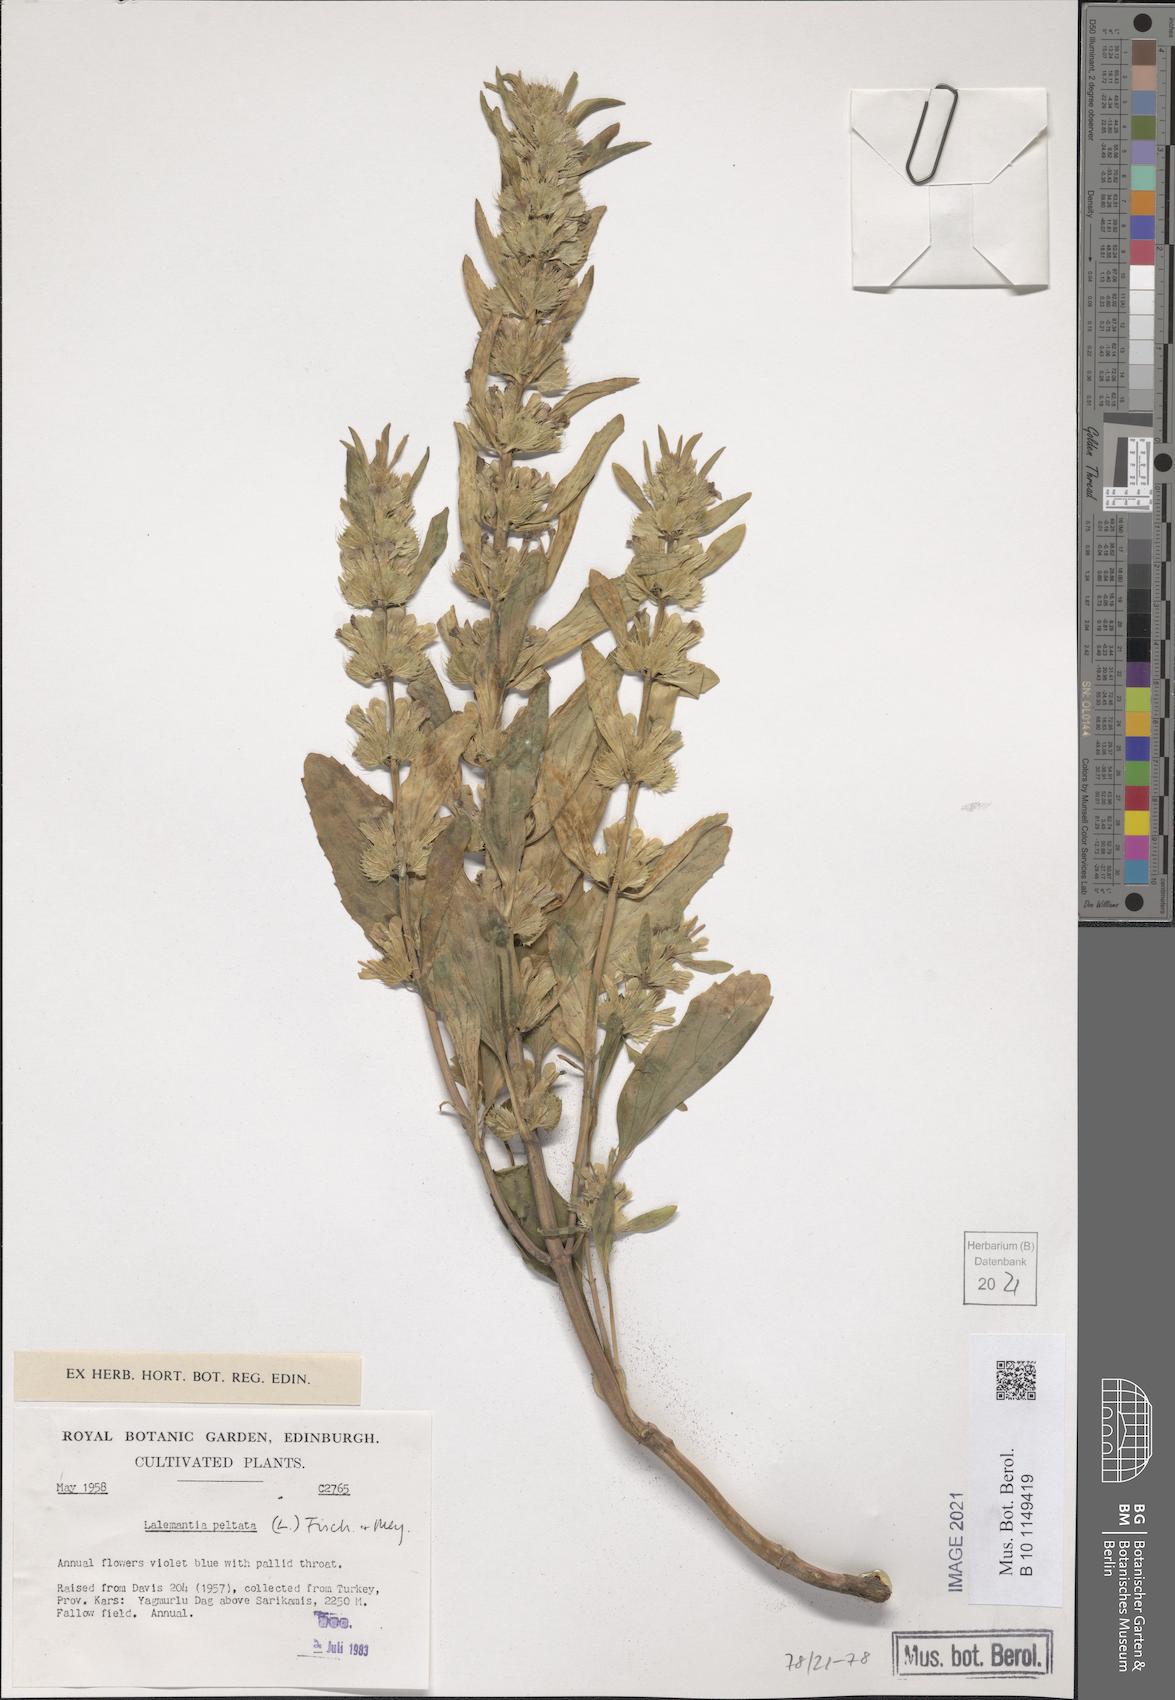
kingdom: Plantae
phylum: Tracheophyta
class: Magnoliopsida
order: Lamiales
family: Lamiaceae
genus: Lallemantia
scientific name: Lallemantia peltata
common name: Lion's heart
